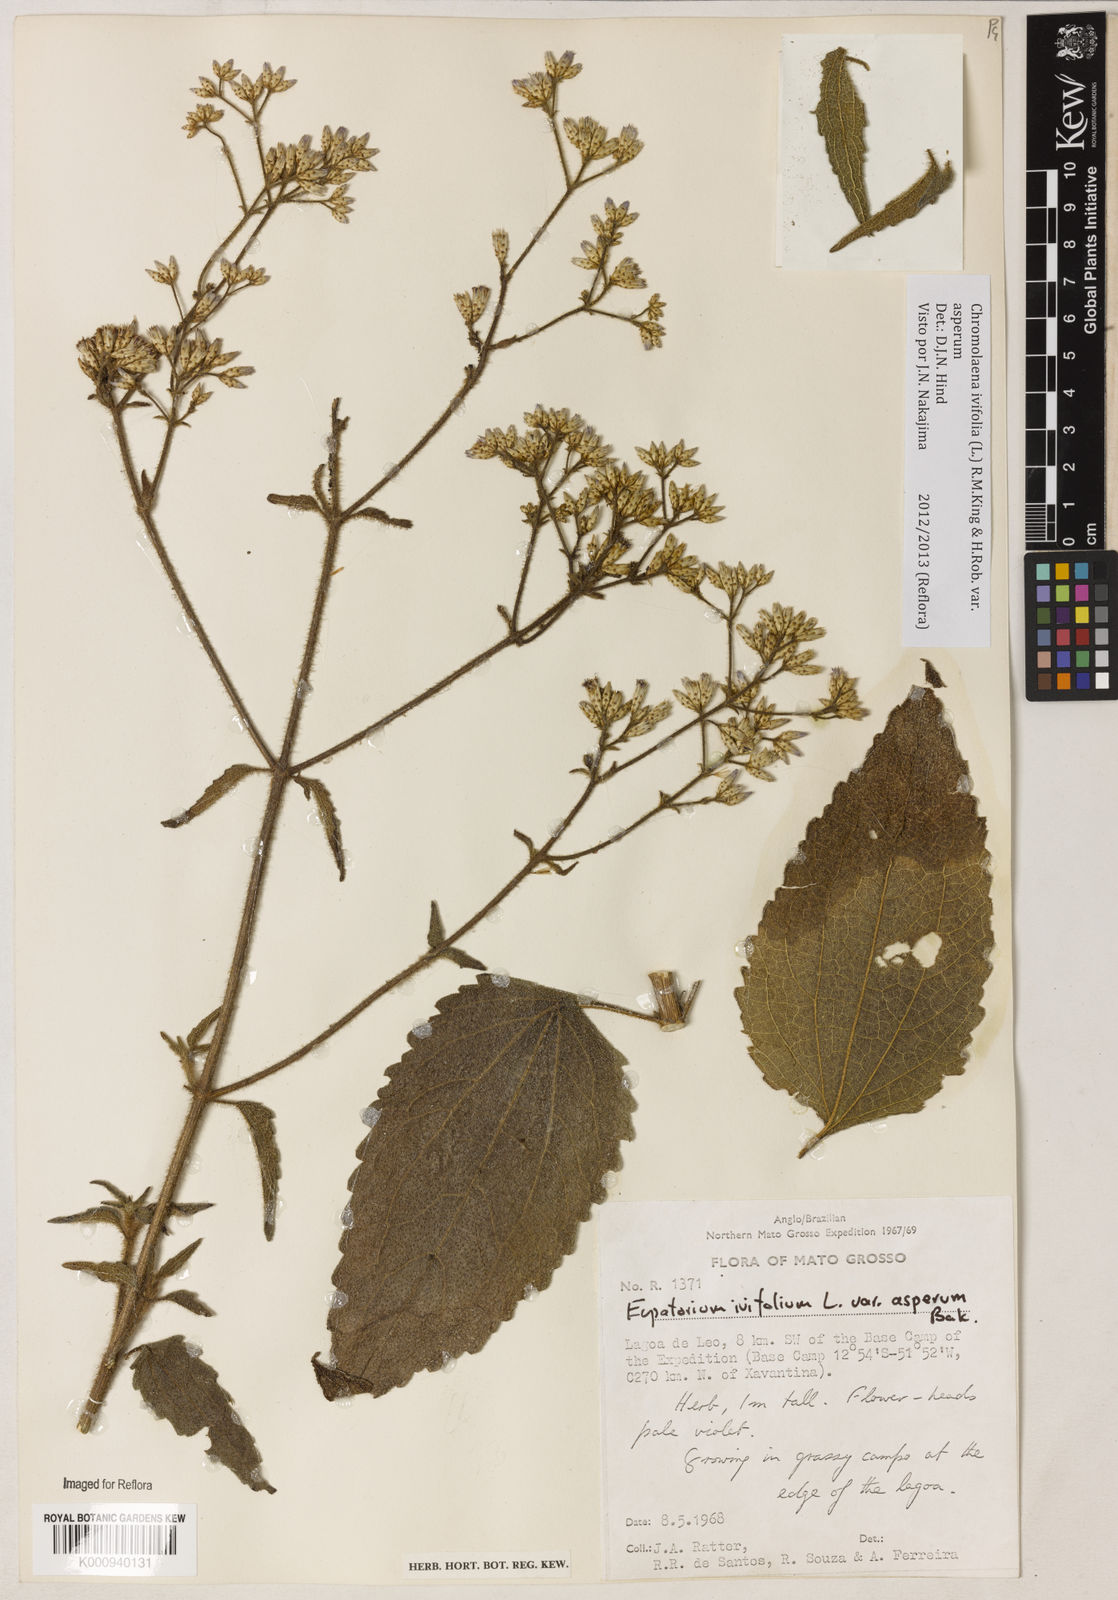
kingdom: Plantae
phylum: Tracheophyta
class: Magnoliopsida
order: Asterales
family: Asteraceae
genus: Chromolaena
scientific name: Chromolaena ivifolia
